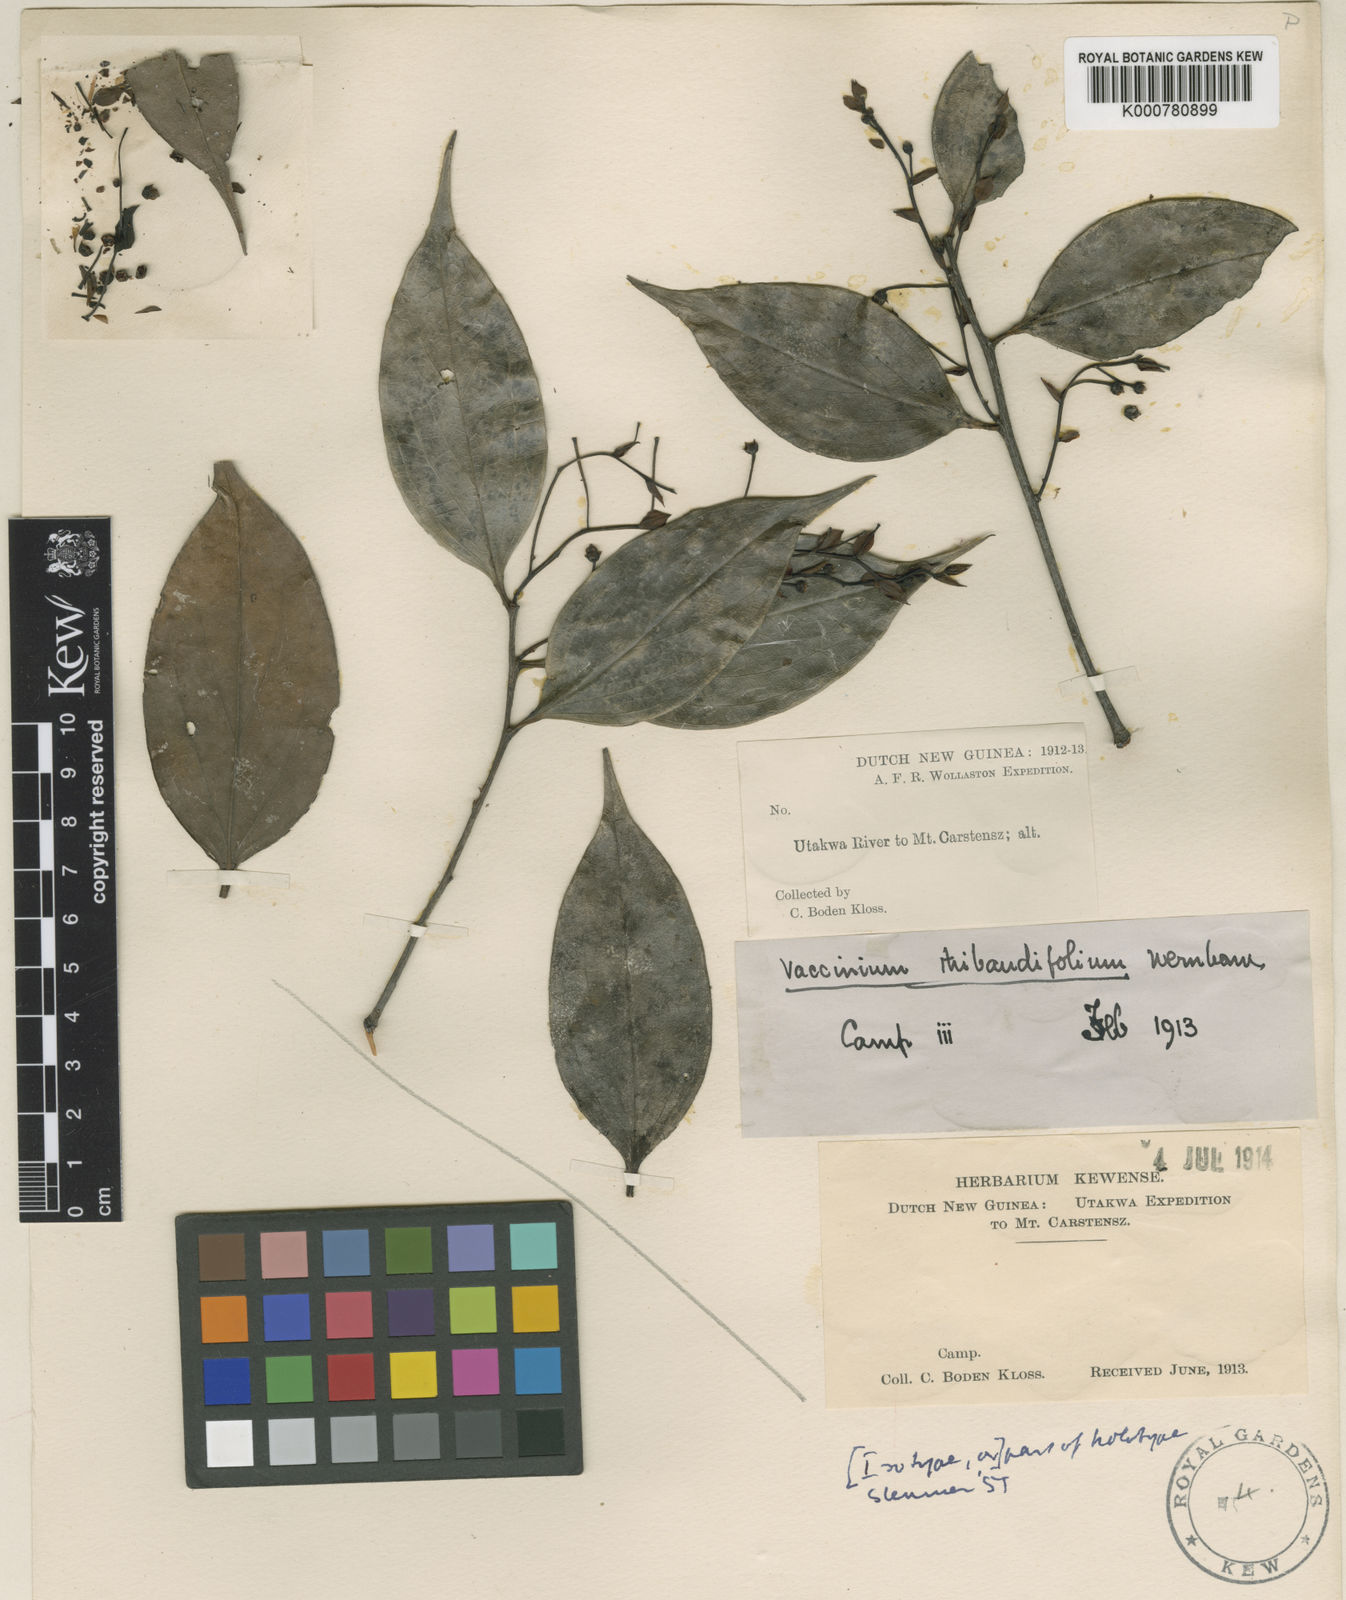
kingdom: Plantae
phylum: Tracheophyta
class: Magnoliopsida
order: Ericales
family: Ericaceae
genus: Vaccinium
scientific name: Vaccinium thibaudifolium
